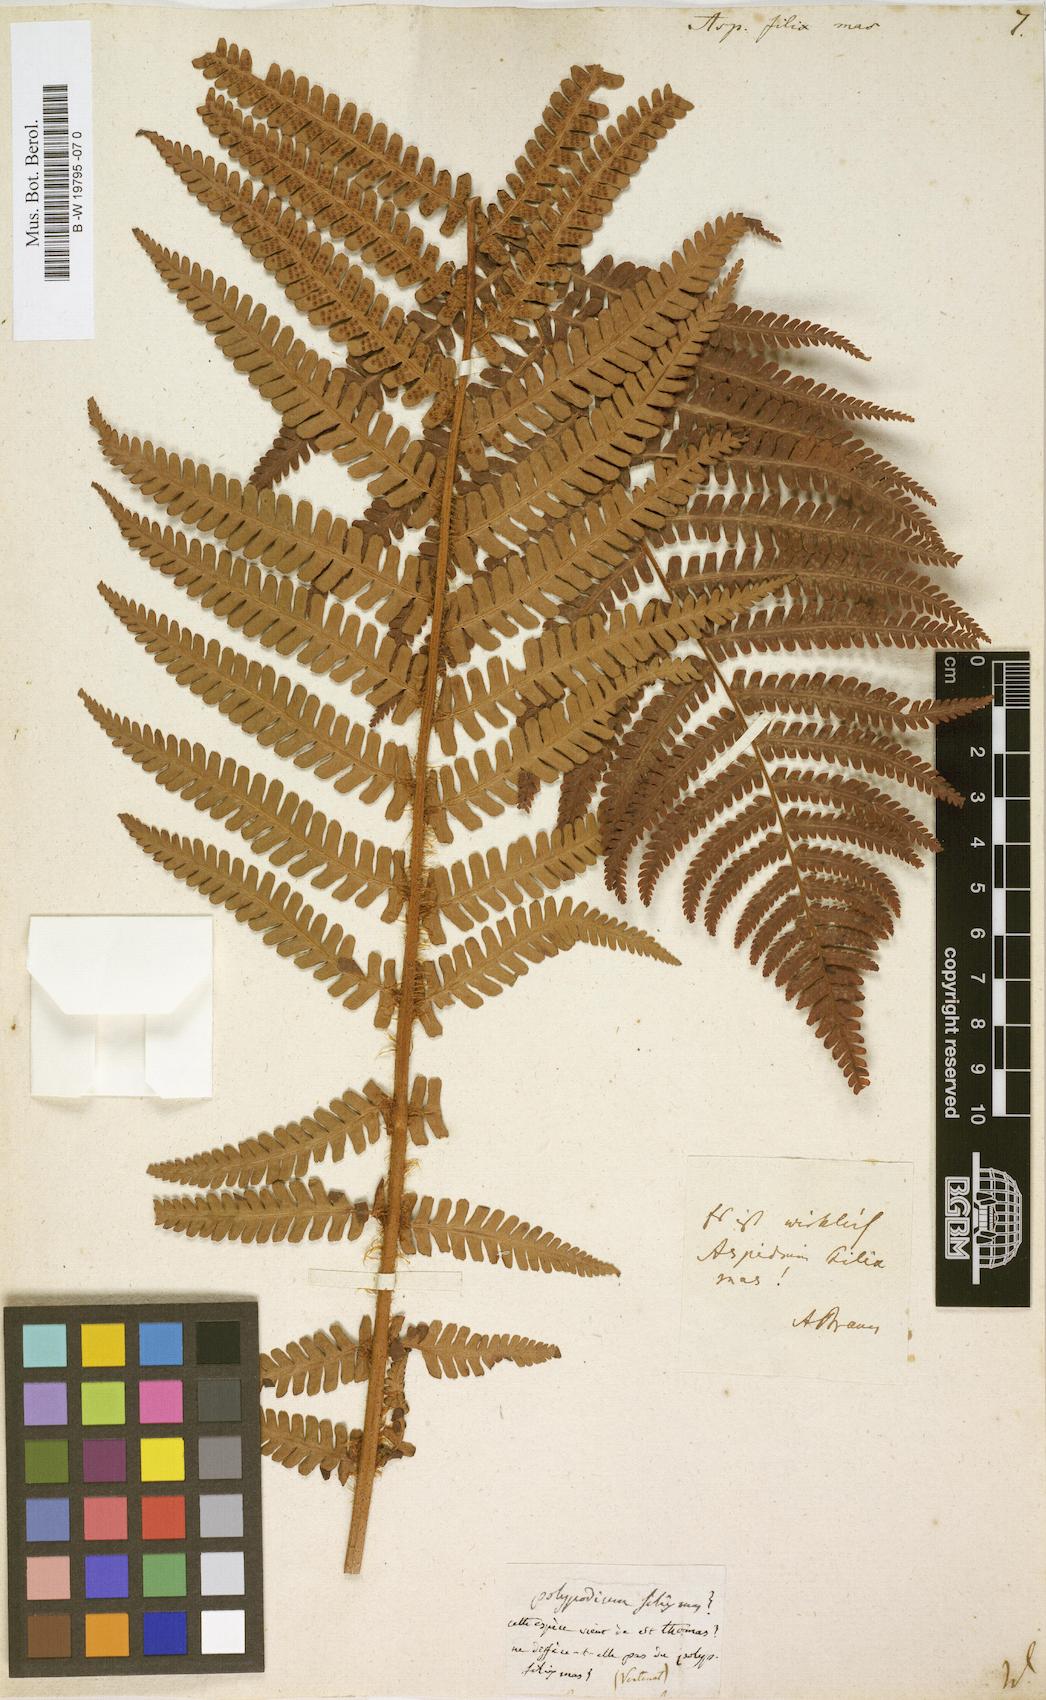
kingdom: Plantae
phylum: Tracheophyta
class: Polypodiopsida
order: Polypodiales
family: Dryopteridaceae
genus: Dryopteris
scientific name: Dryopteris filix-mas
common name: Male fern
